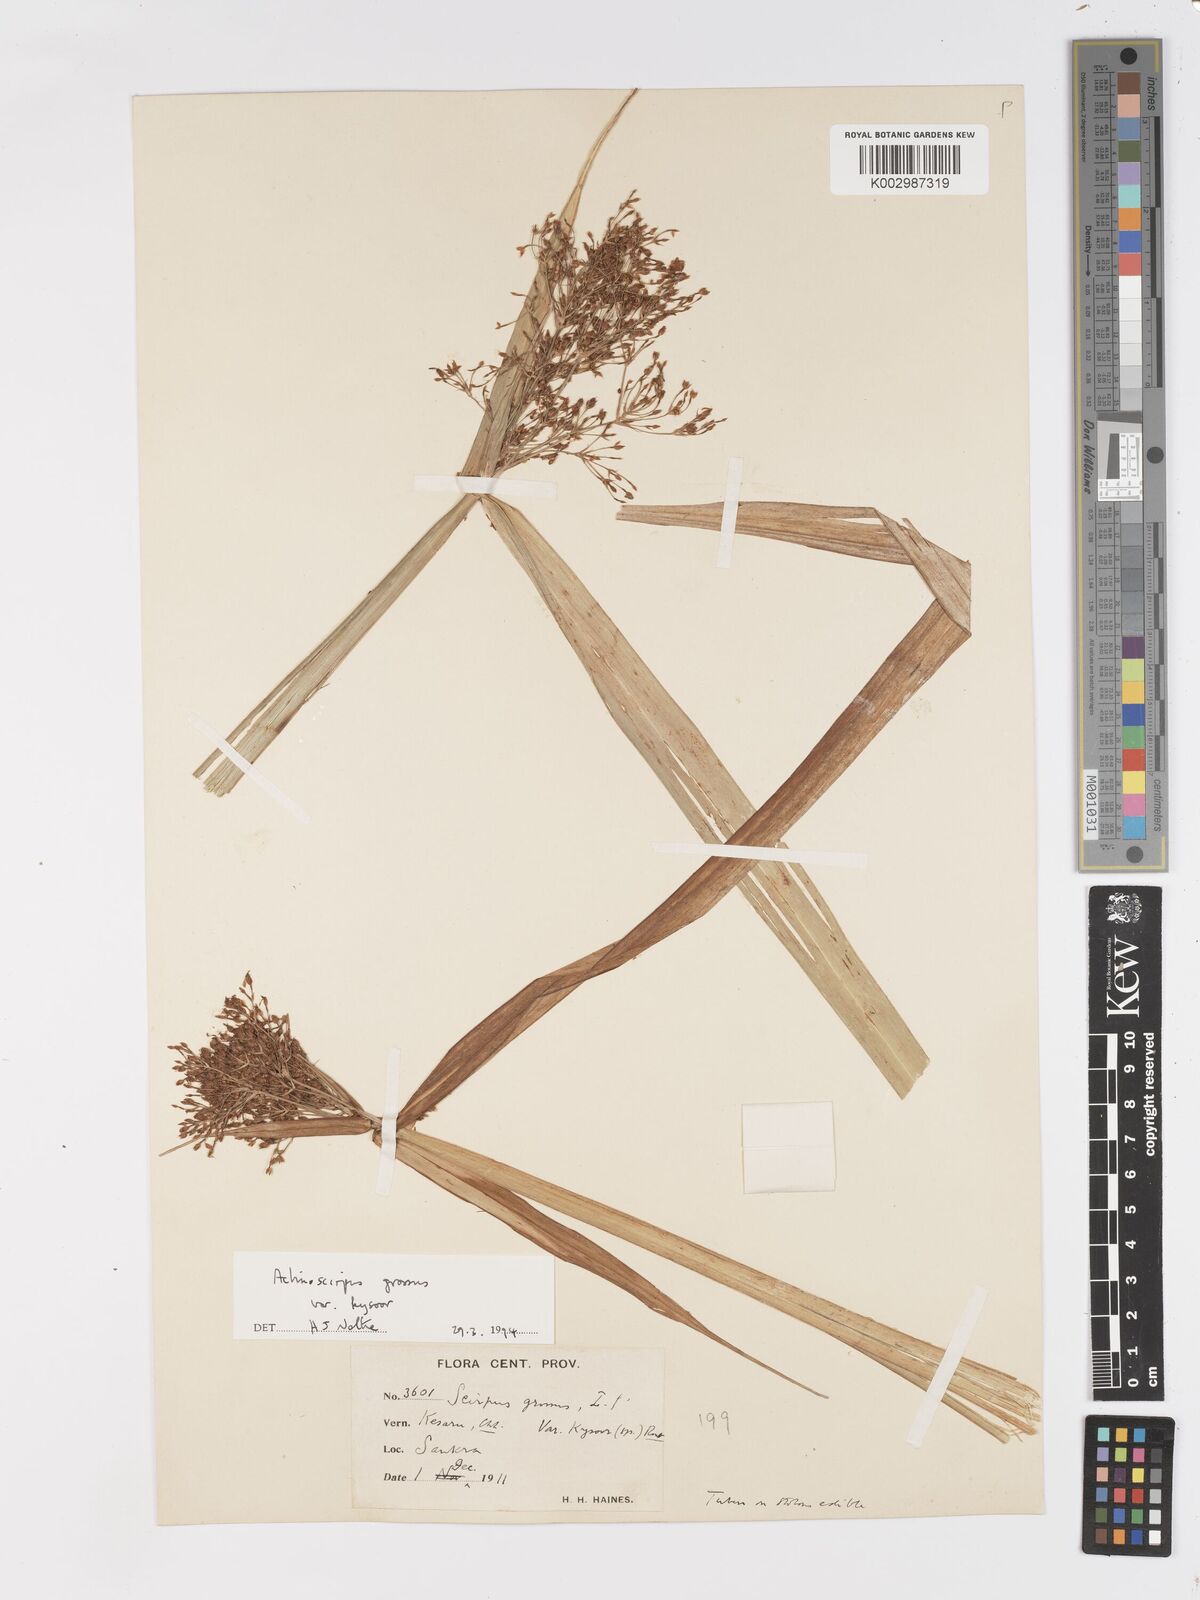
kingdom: Plantae
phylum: Tracheophyta
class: Liliopsida
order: Poales
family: Cyperaceae
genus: Actinoscirpus
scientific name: Actinoscirpus grossus
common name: Giant bur rush
